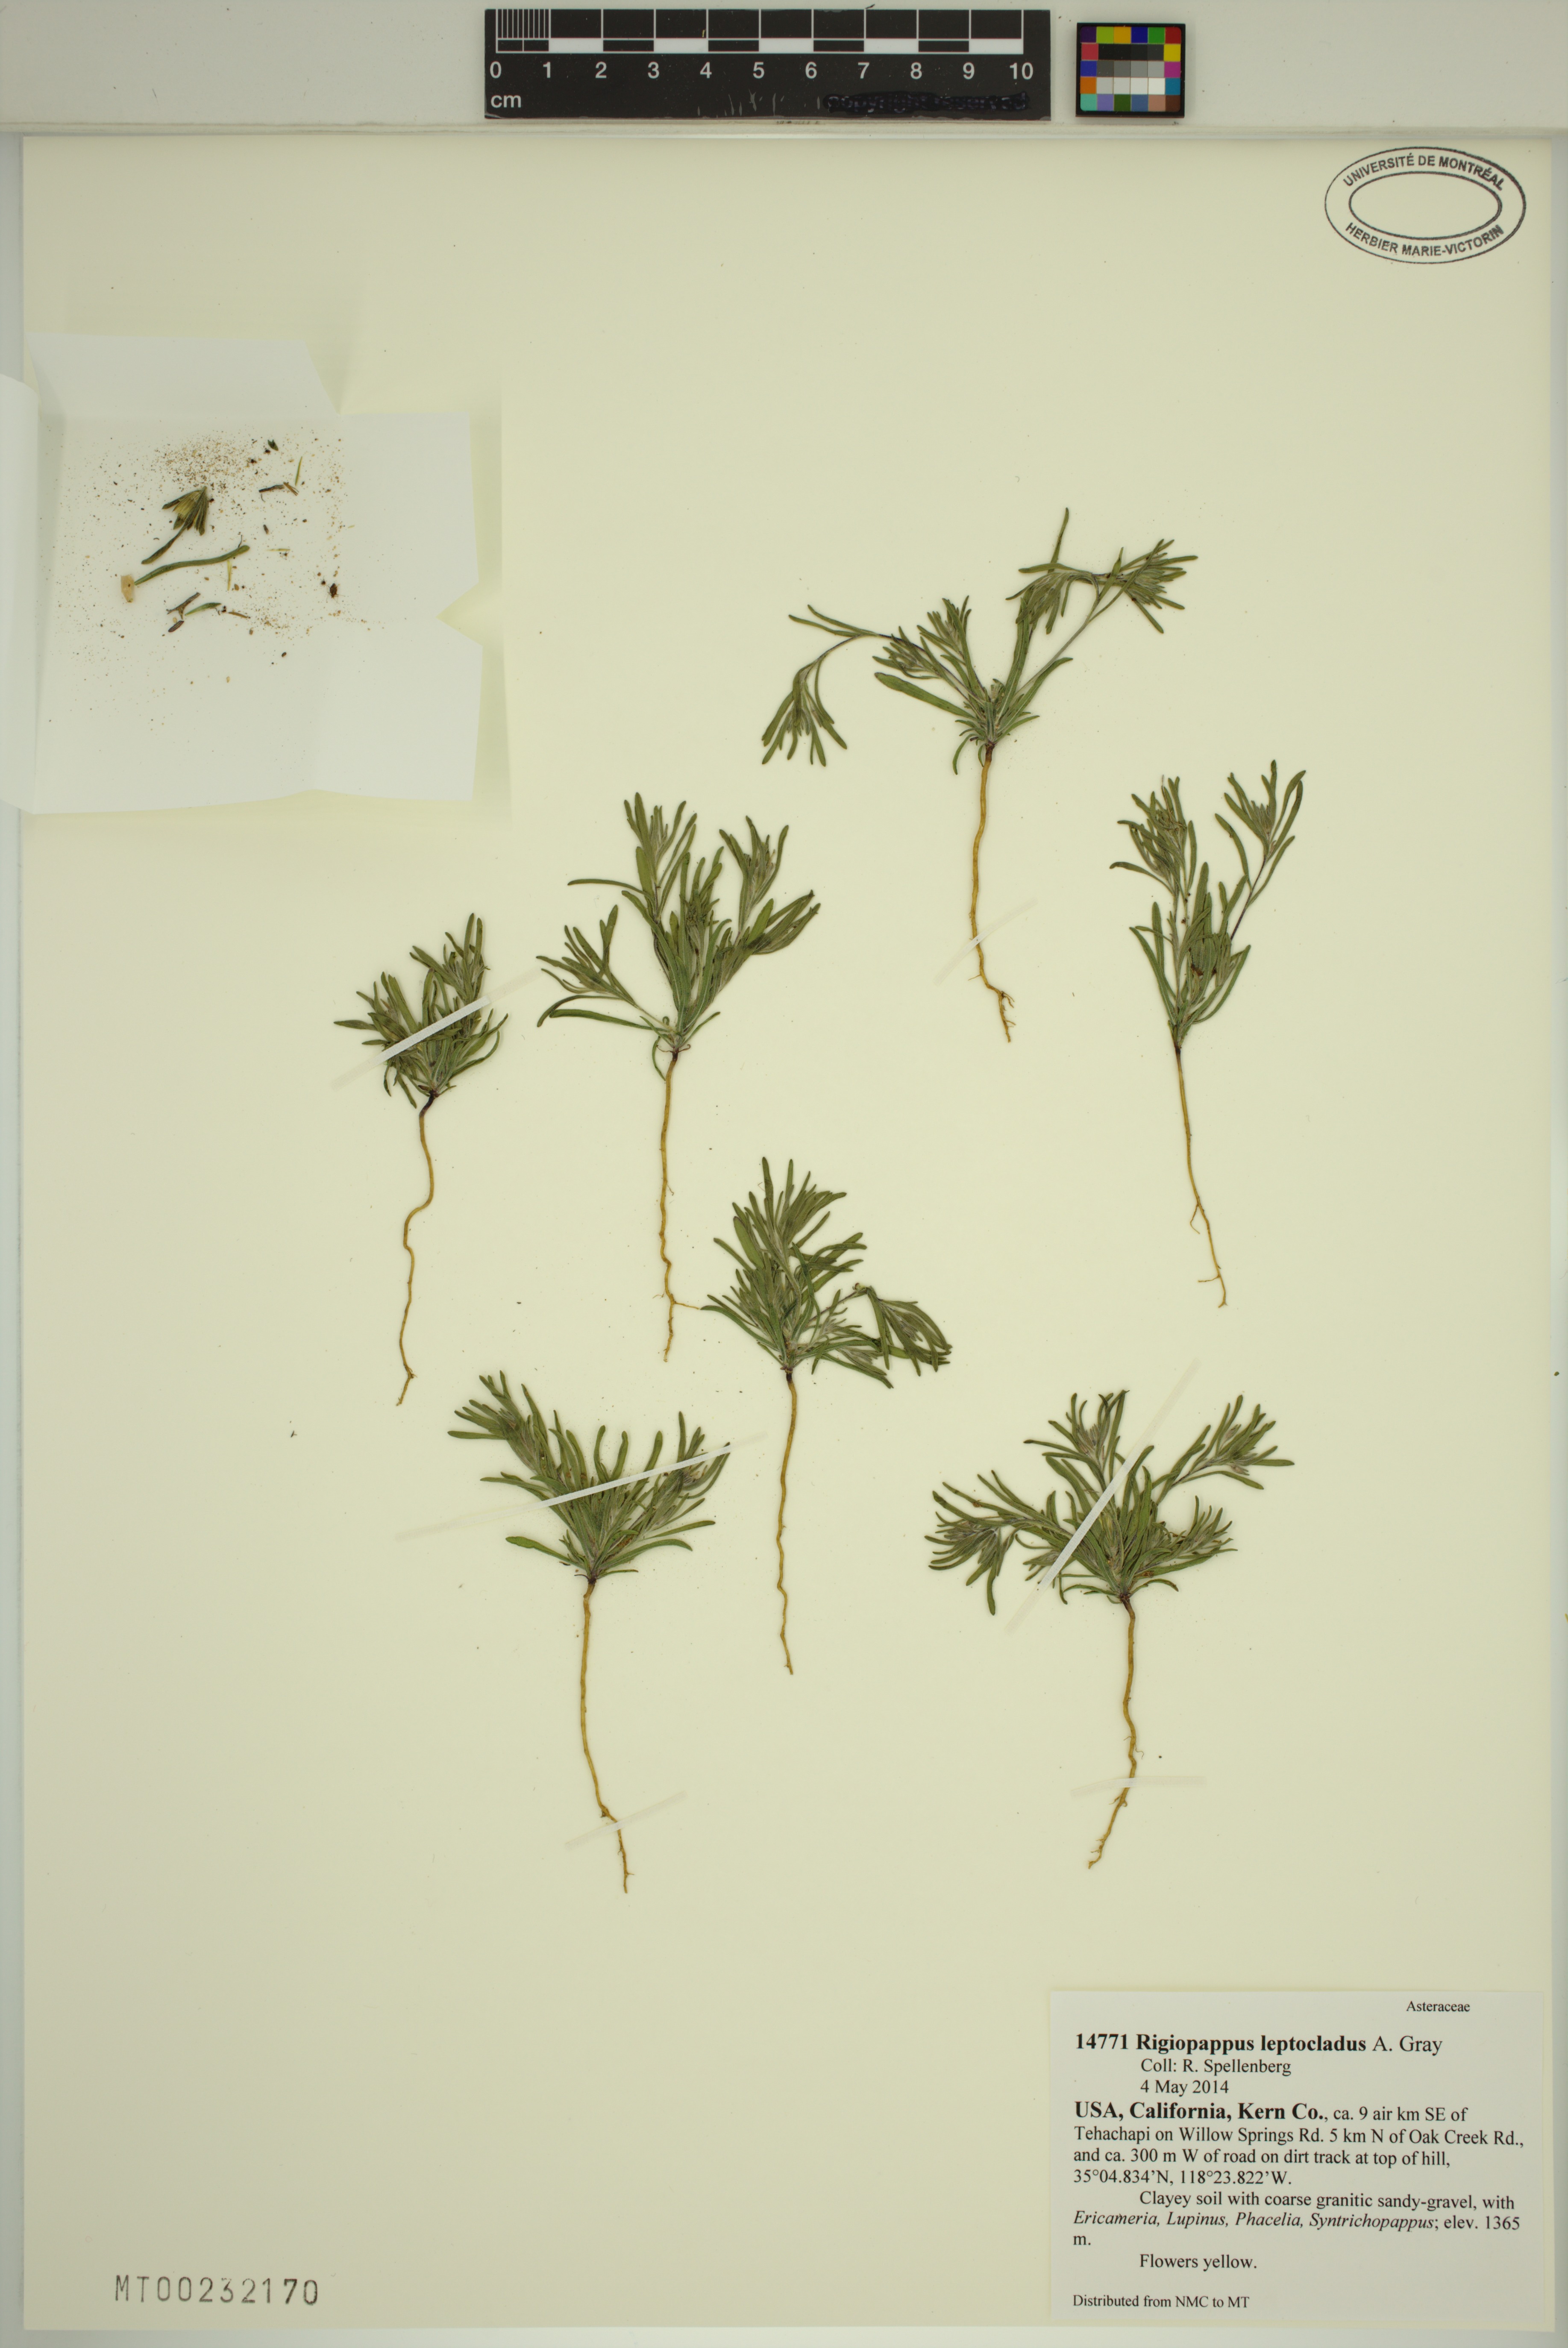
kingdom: Plantae
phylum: Tracheophyta
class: Magnoliopsida
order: Asterales
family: Asteraceae
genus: Rigiopappus
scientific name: Rigiopappus leptocladus
